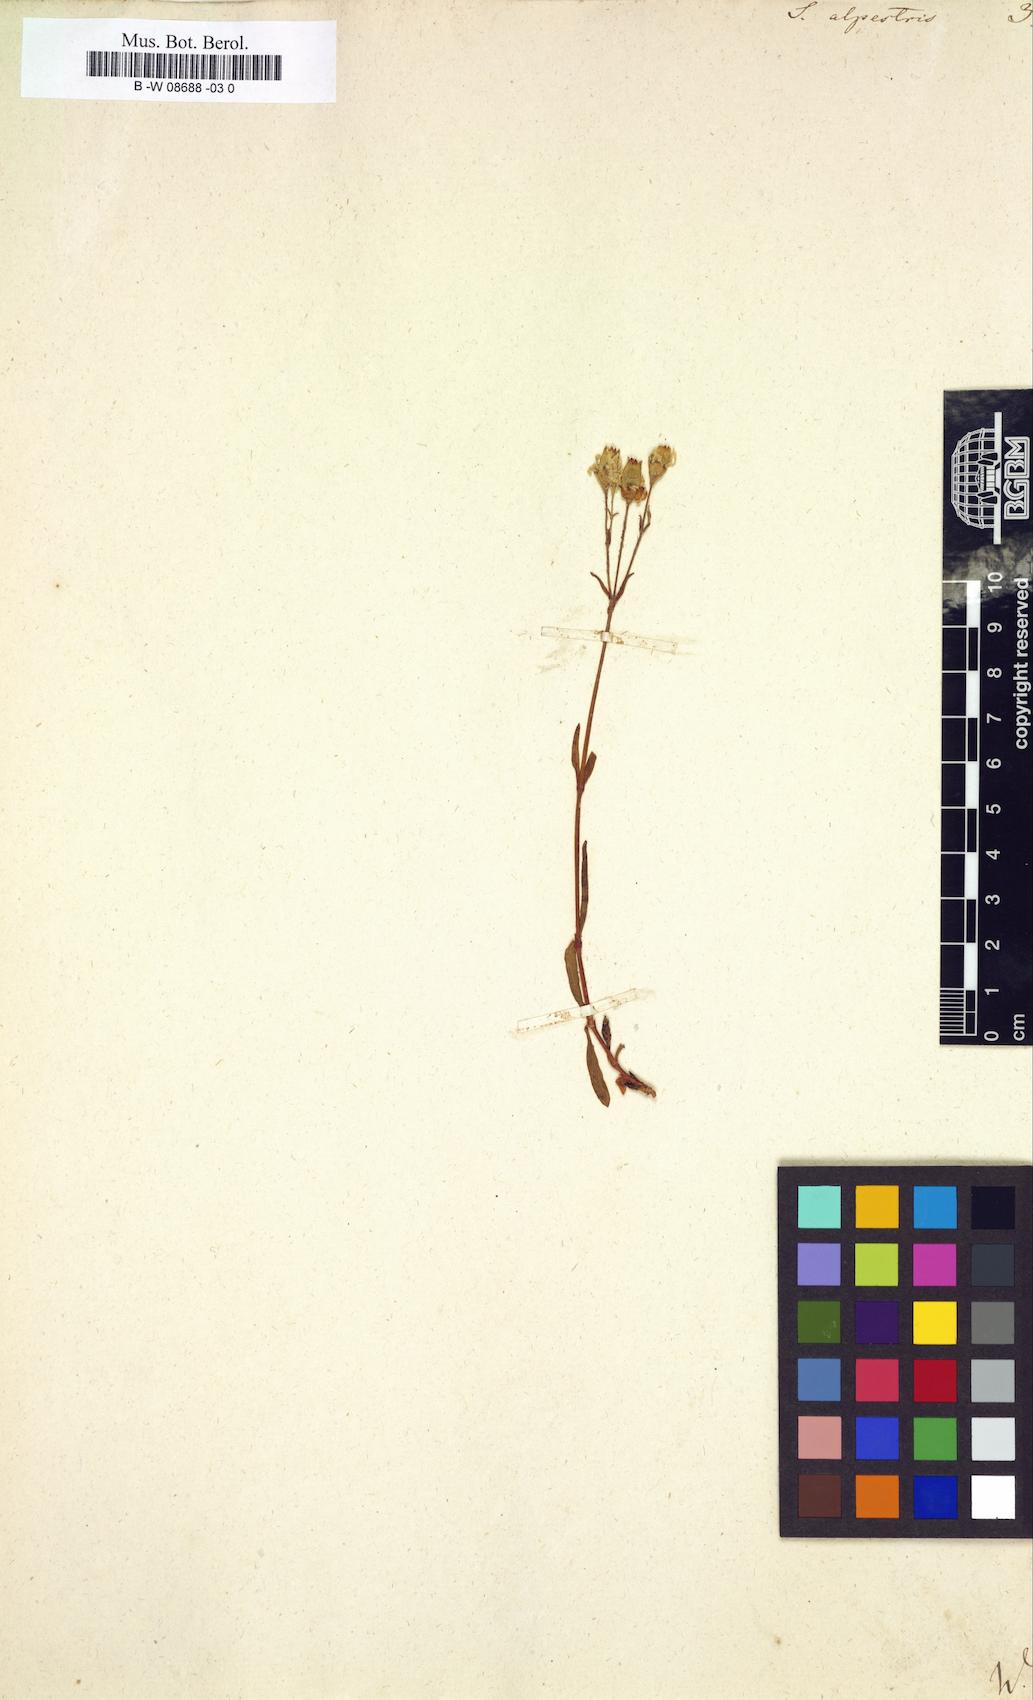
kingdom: Plantae
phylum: Tracheophyta
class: Magnoliopsida
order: Caryophyllales
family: Caryophyllaceae
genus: Heliosperma
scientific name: Heliosperma alpestre
